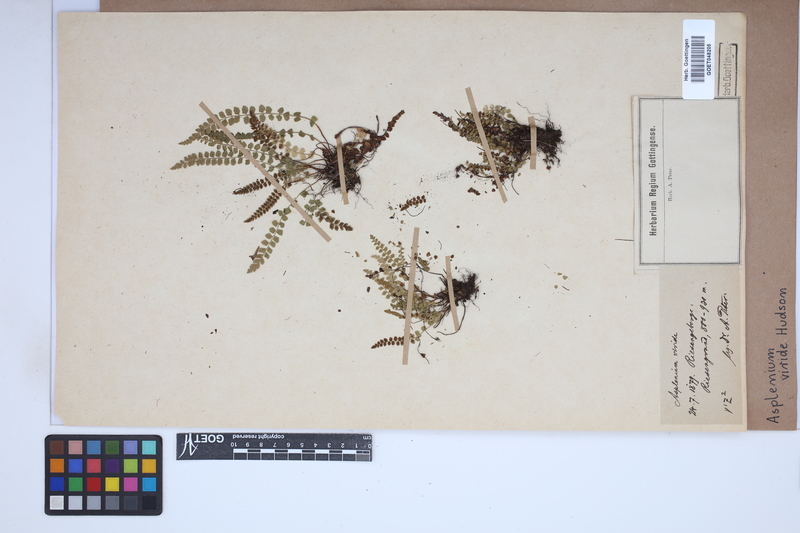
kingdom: Plantae
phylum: Tracheophyta
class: Polypodiopsida
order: Polypodiales
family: Aspleniaceae
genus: Asplenium
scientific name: Asplenium viride
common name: Green spleenwort
